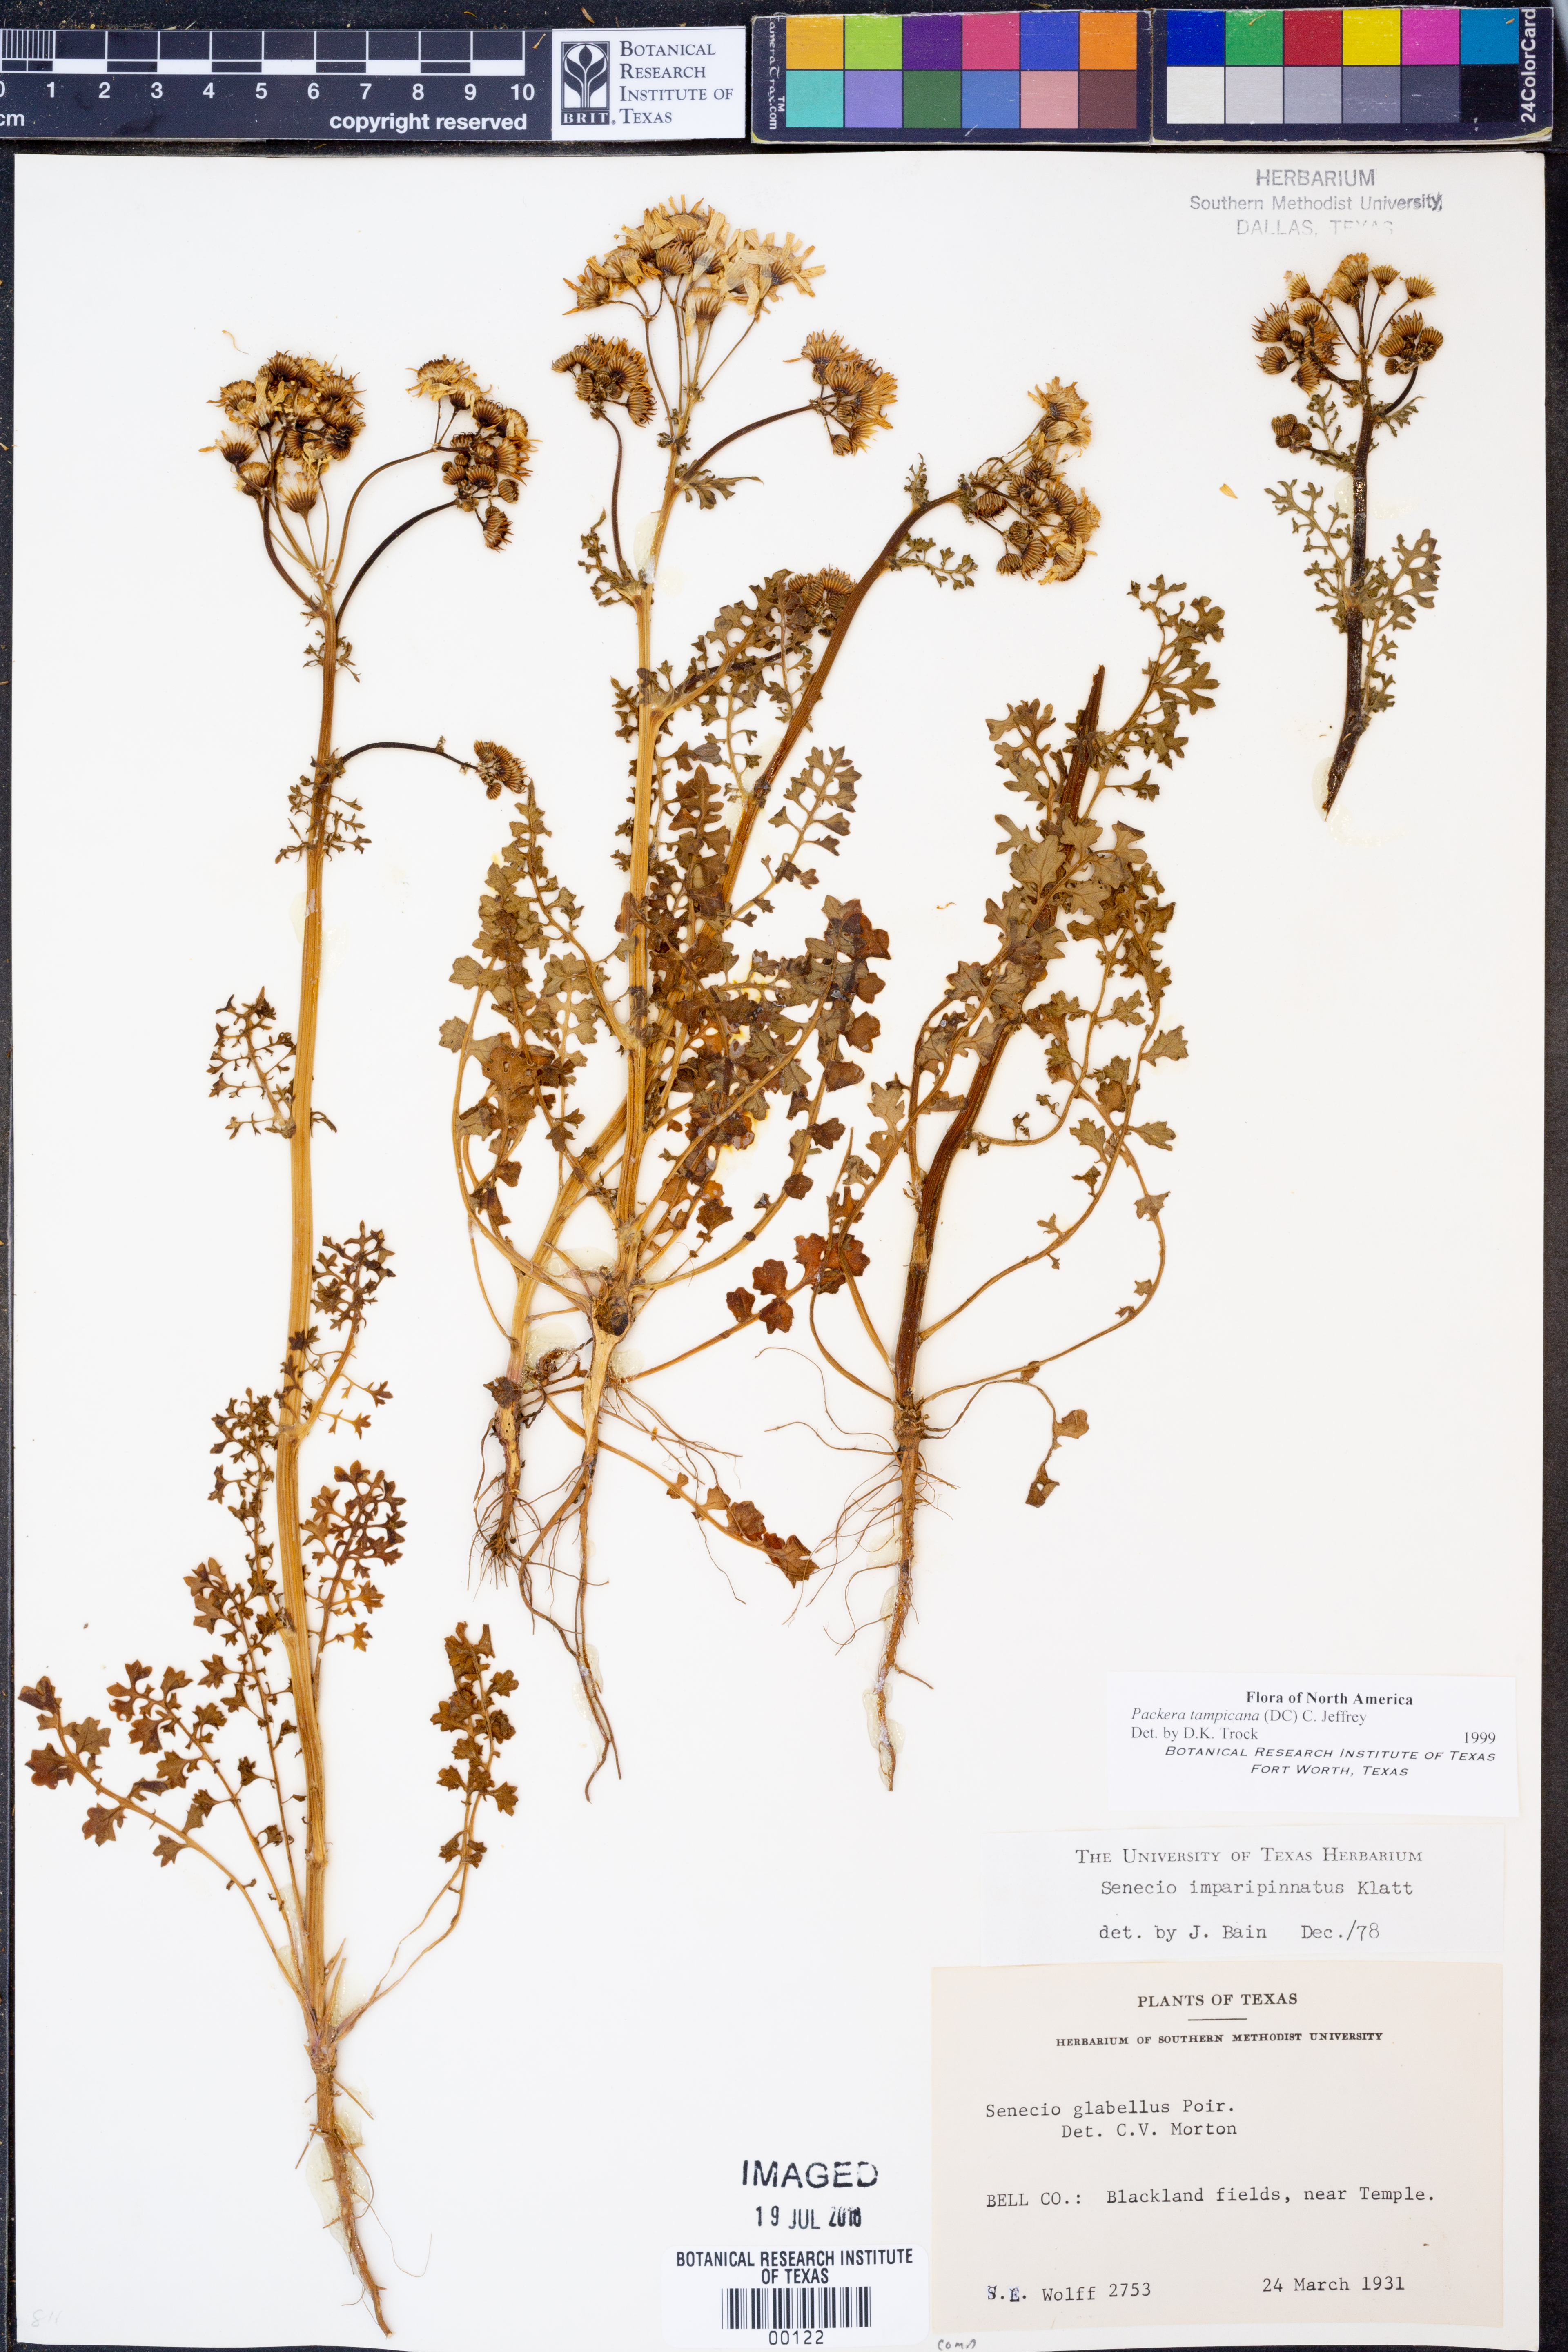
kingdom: Plantae
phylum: Tracheophyta
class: Magnoliopsida
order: Asterales
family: Asteraceae
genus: Packera
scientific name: Packera tampicana
